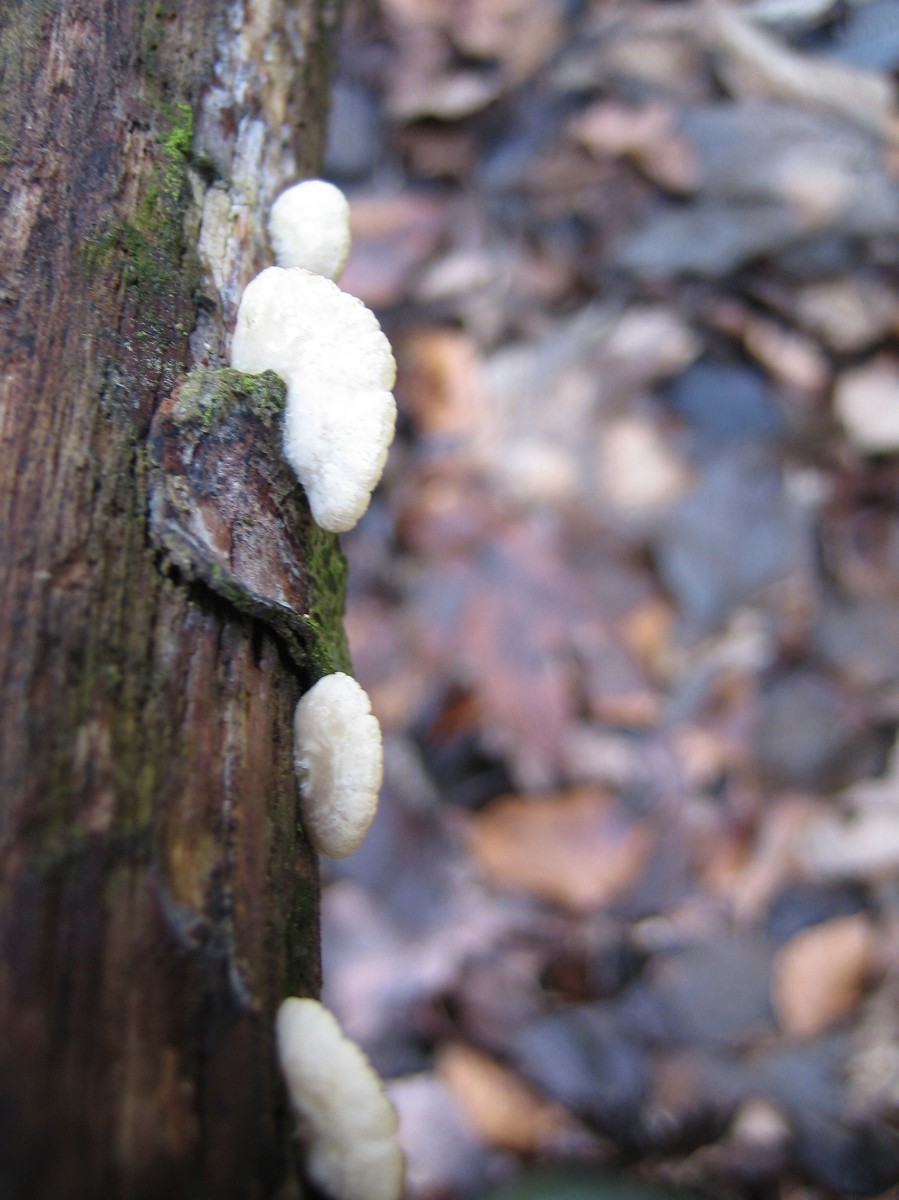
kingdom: Fungi
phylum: Basidiomycota
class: Agaricomycetes
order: Agaricales
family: Crepidotaceae
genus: Crepidotus
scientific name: Crepidotus
